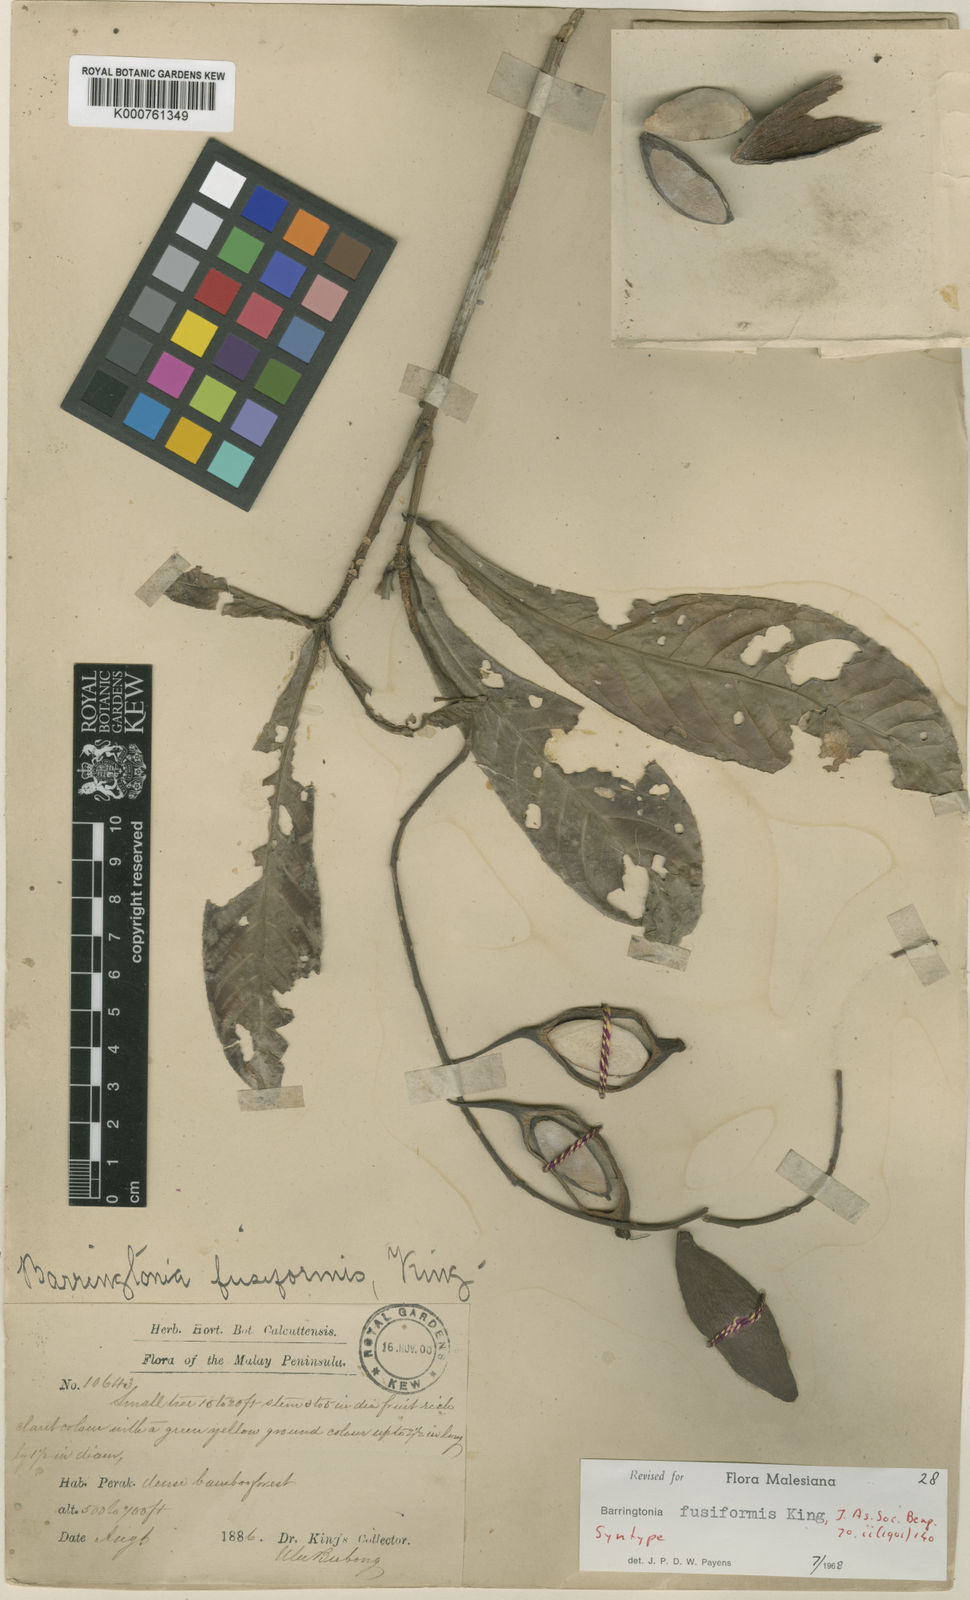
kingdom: Plantae
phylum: Tracheophyta
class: Magnoliopsida
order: Ericales
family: Lecythidaceae
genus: Barringtonia
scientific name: Barringtonia fusiformis
